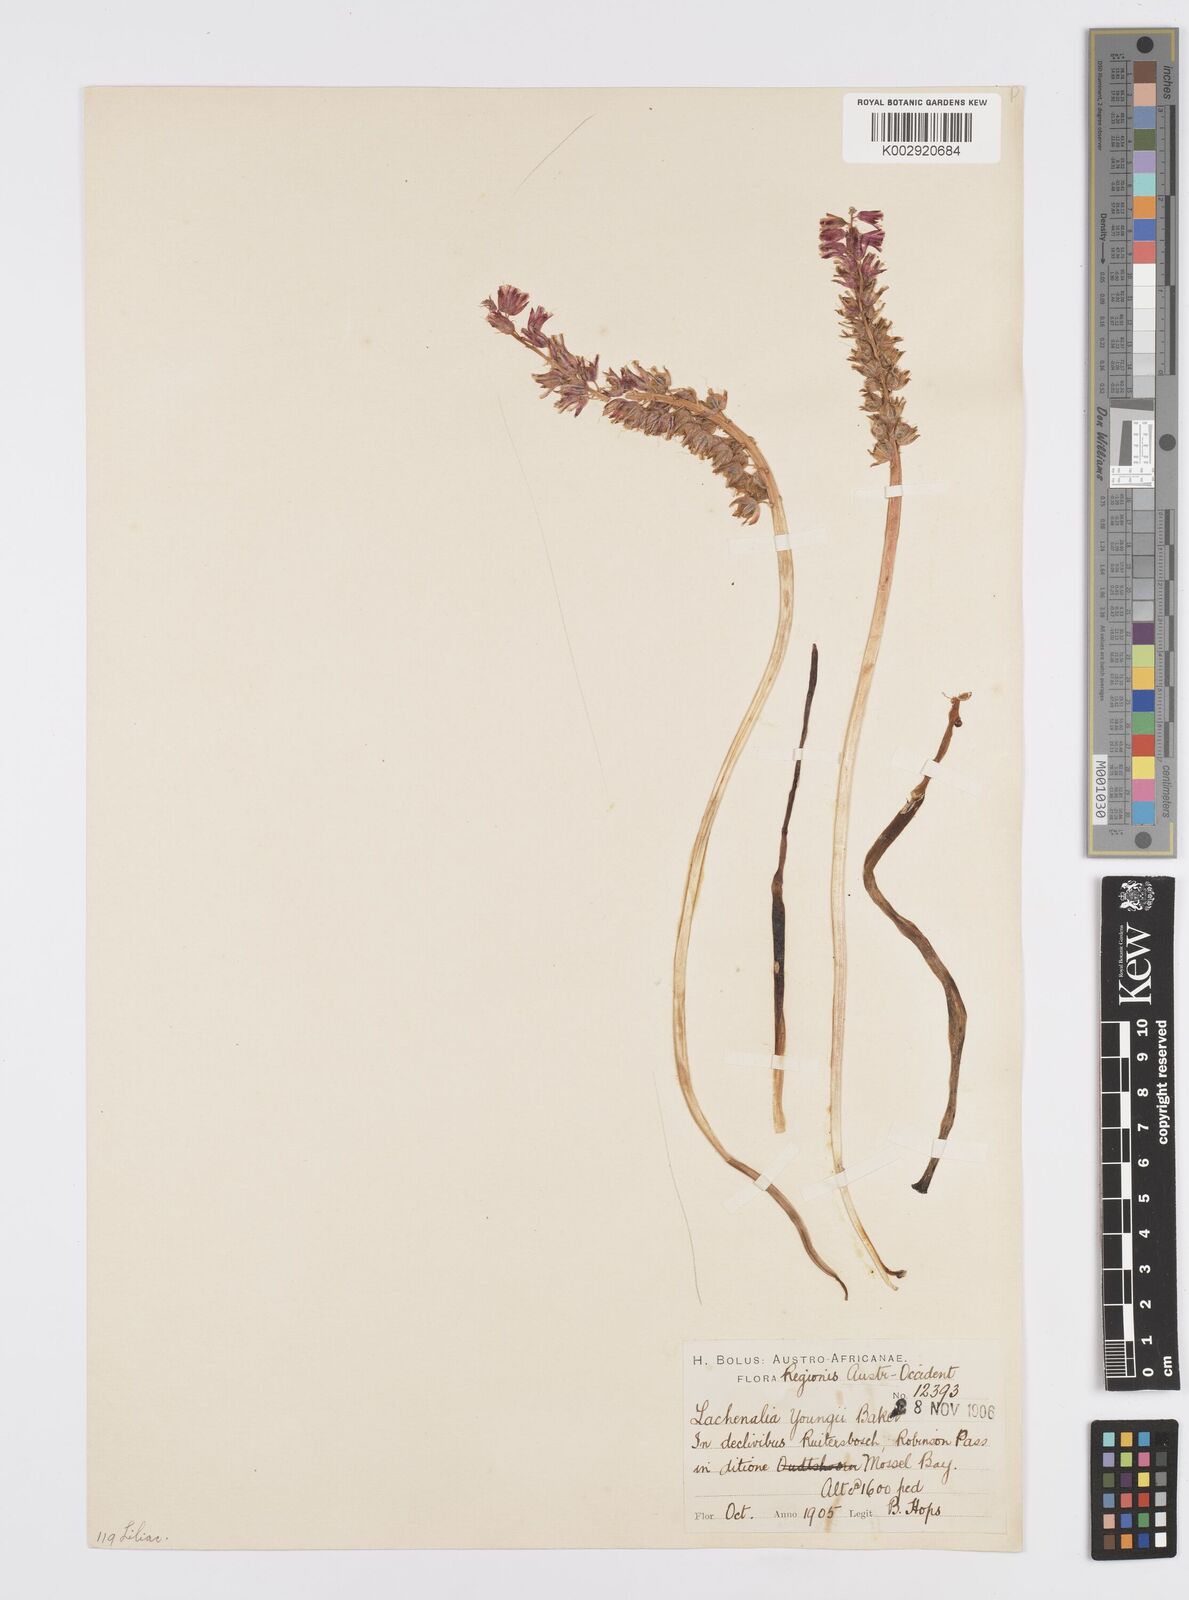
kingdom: Plantae
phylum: Tracheophyta
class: Liliopsida
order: Asparagales
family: Asparagaceae
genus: Lachenalia
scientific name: Lachenalia youngii
